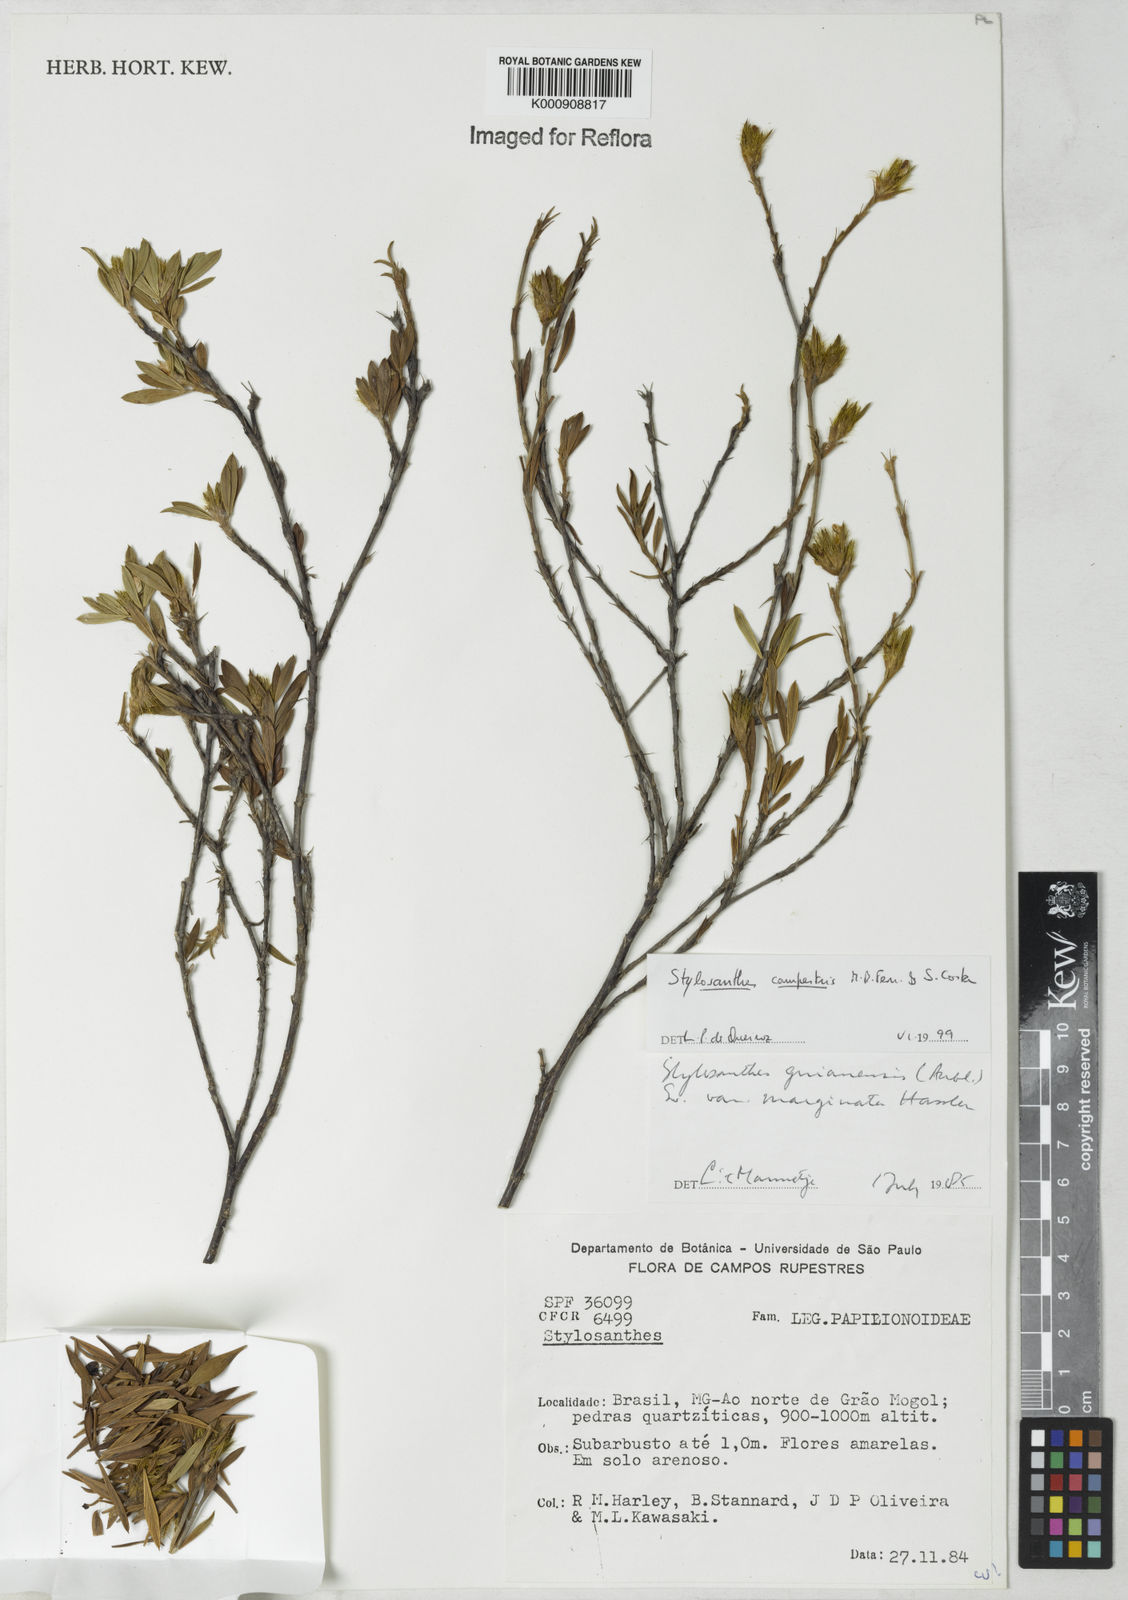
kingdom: Plantae
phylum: Tracheophyta
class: Magnoliopsida
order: Fabales
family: Fabaceae
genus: Stylosanthes
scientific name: Stylosanthes campestris
